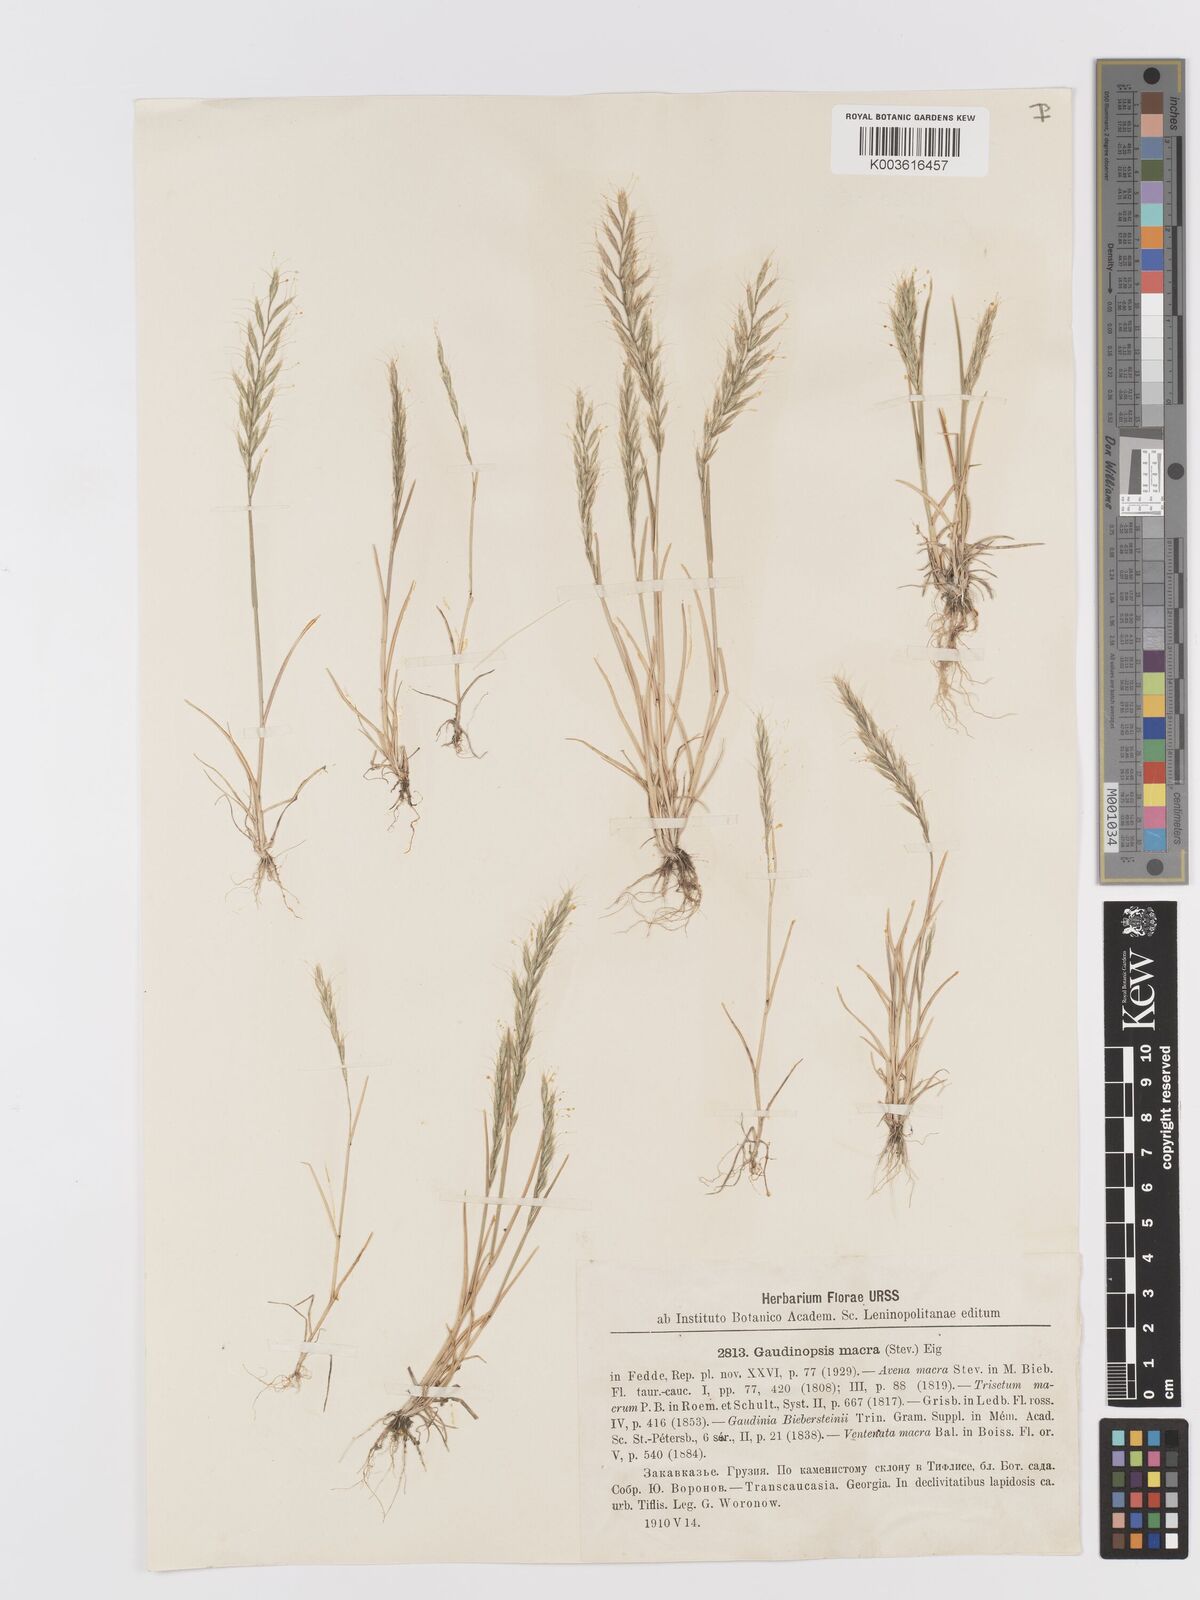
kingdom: Plantae
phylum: Tracheophyta
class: Liliopsida
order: Poales
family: Poaceae
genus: Ventenata
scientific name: Ventenata macra
